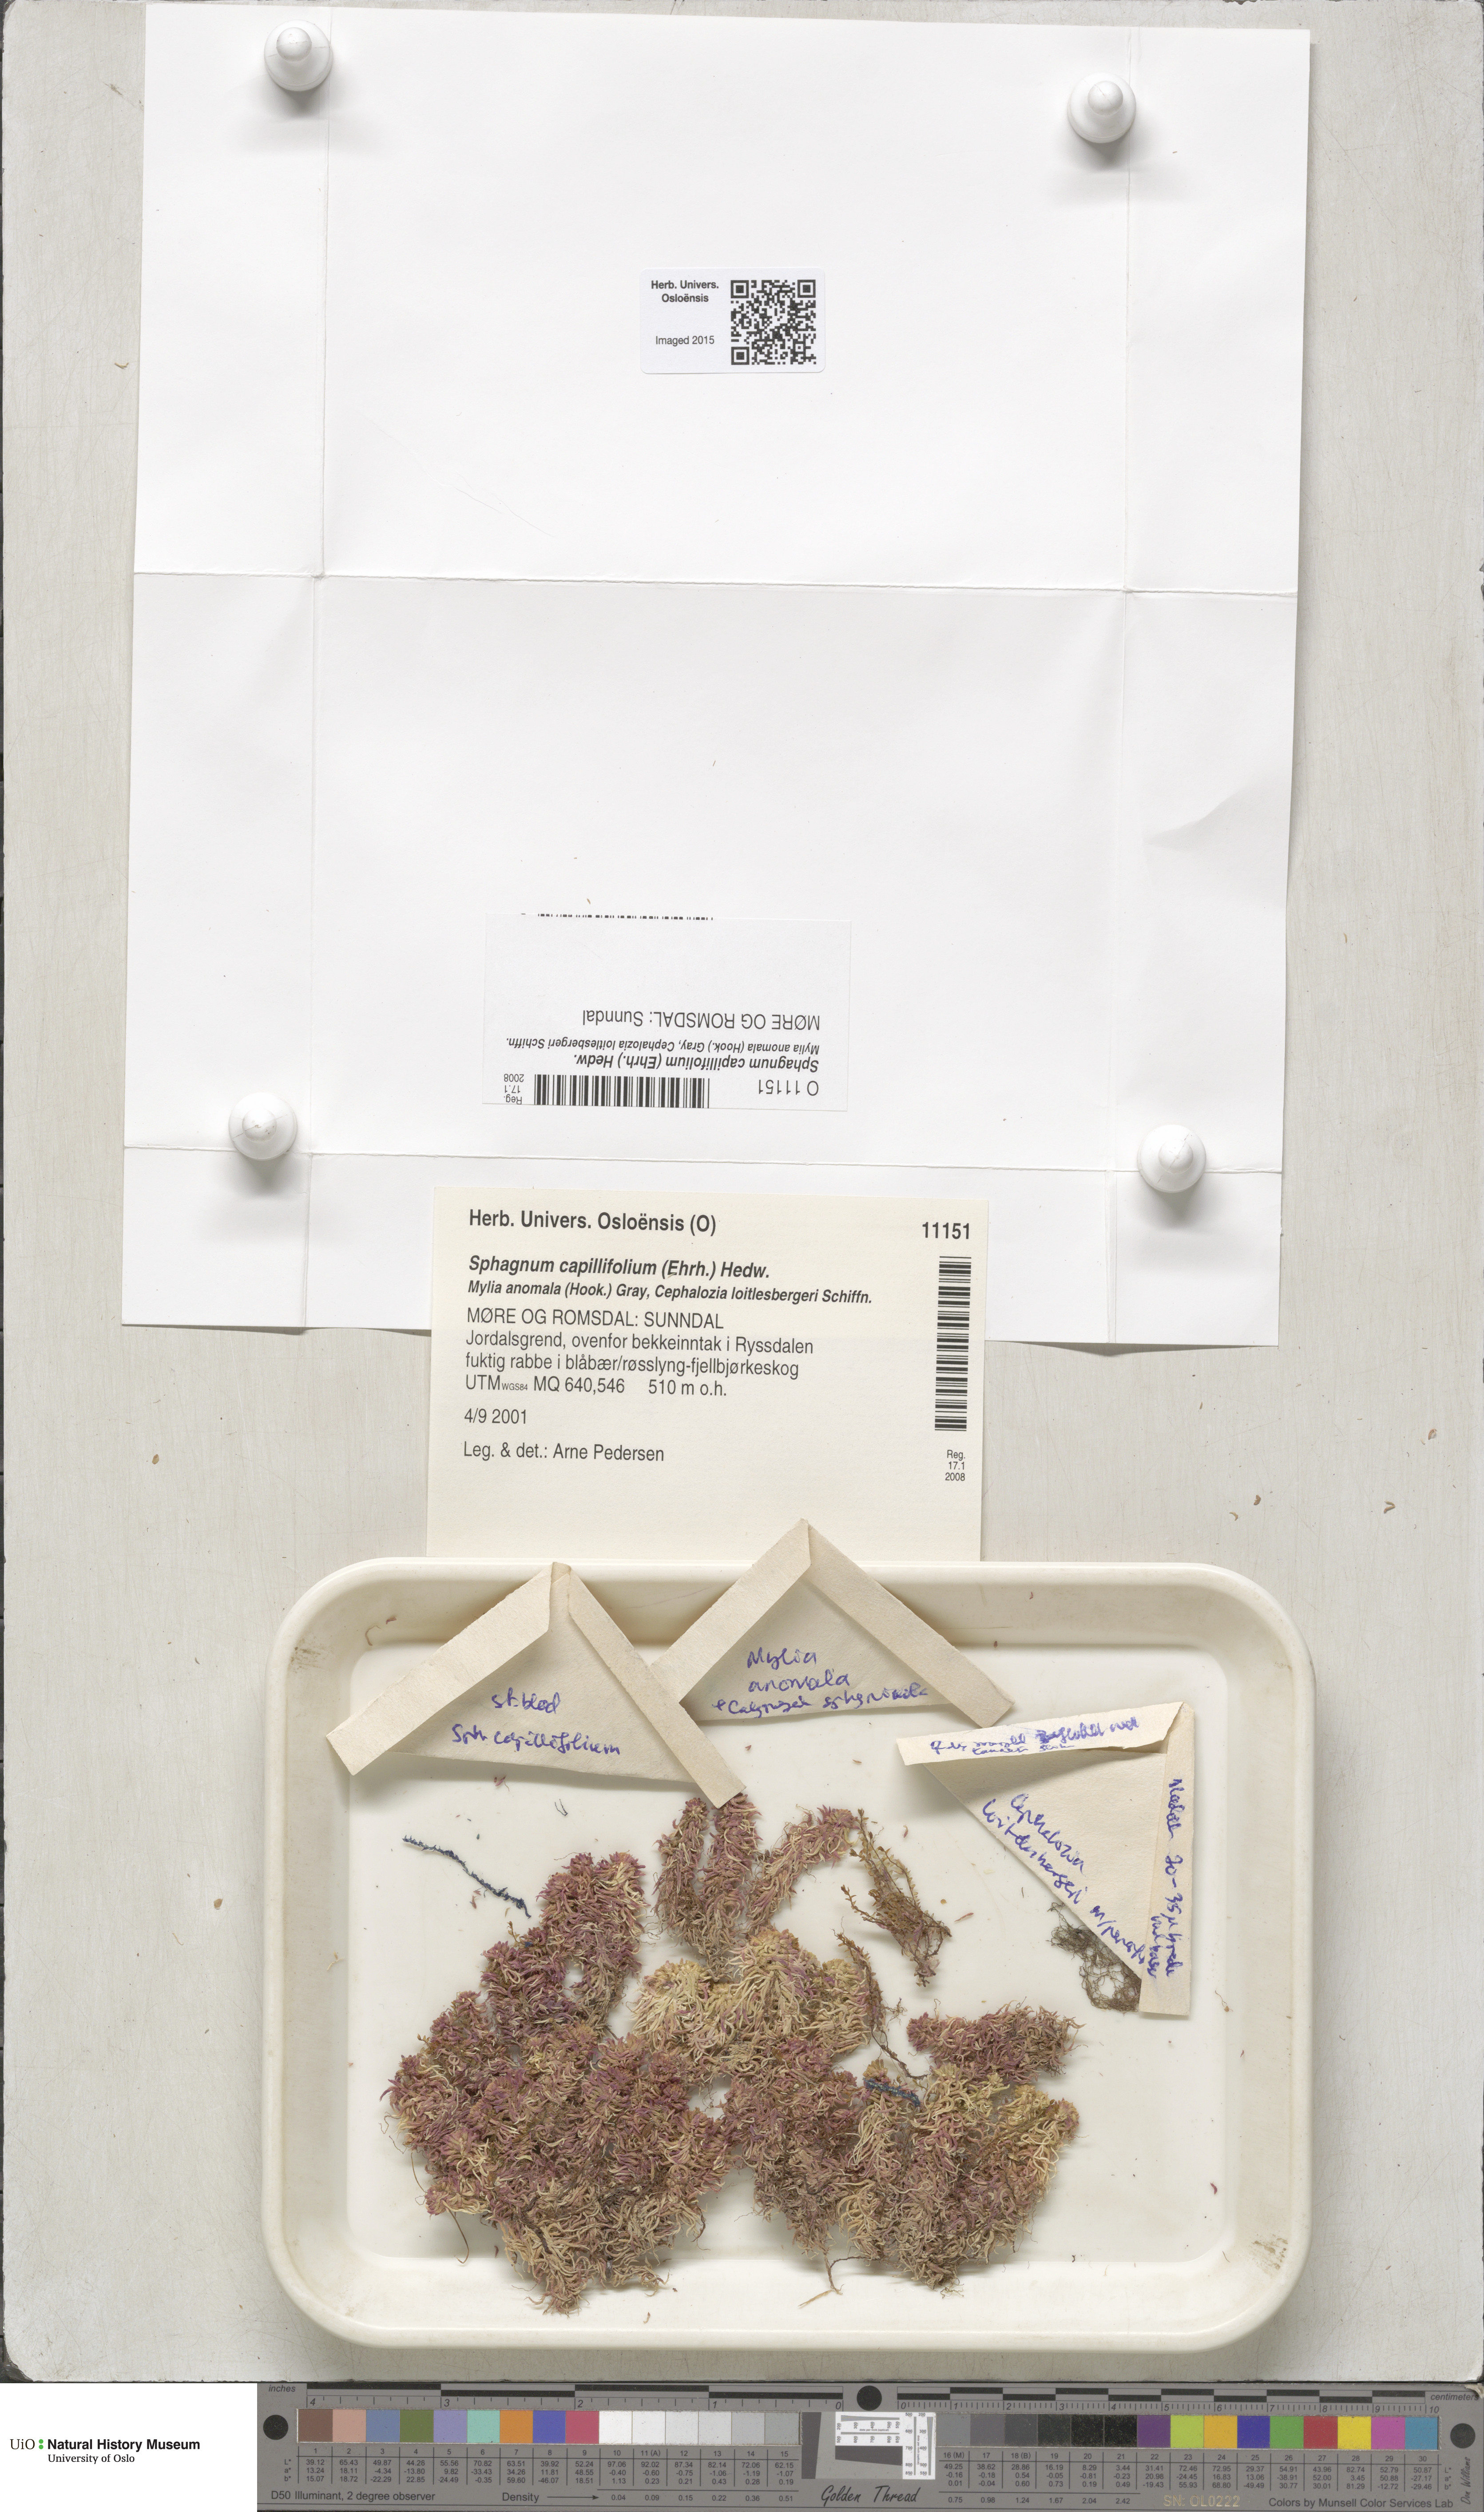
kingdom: Plantae
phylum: Bryophyta
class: Sphagnopsida
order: Sphagnales
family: Sphagnaceae
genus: Sphagnum
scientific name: Sphagnum capillifolium
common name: Small red peat moss
